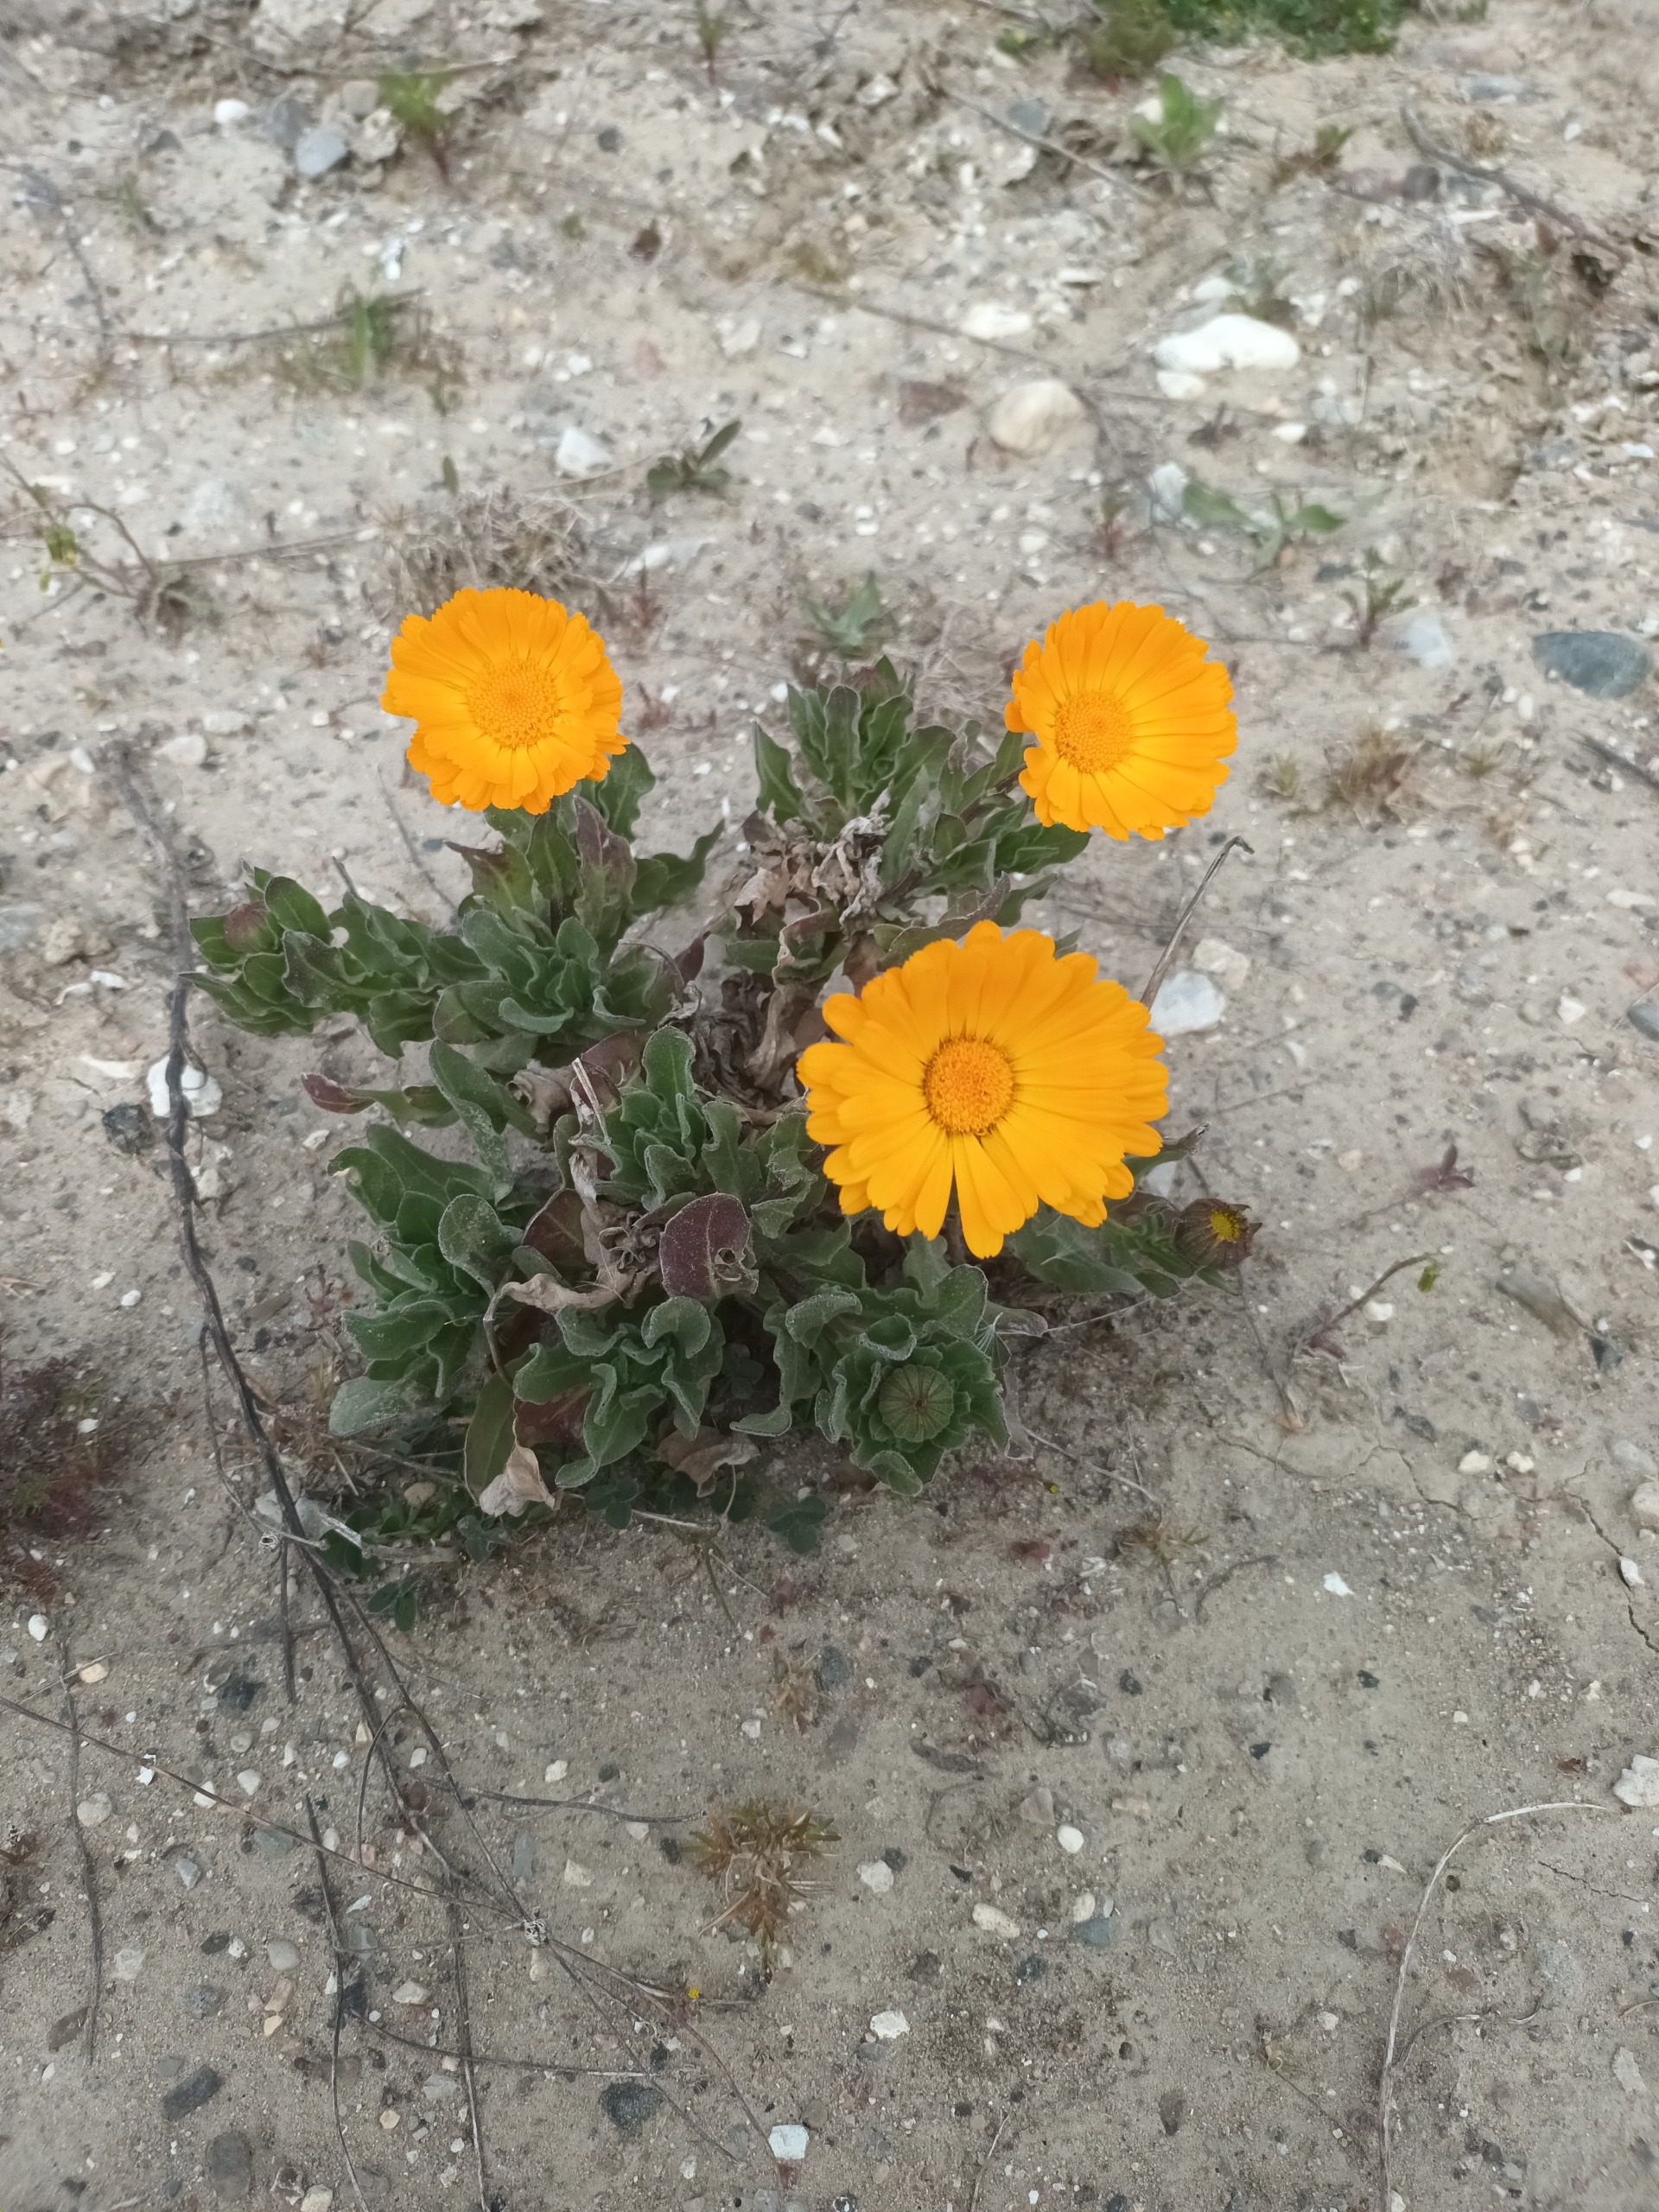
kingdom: Plantae
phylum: Tracheophyta
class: Magnoliopsida
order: Asterales
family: Asteraceae
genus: Calendula
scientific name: Calendula officinalis
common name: Have-morgenfrue
